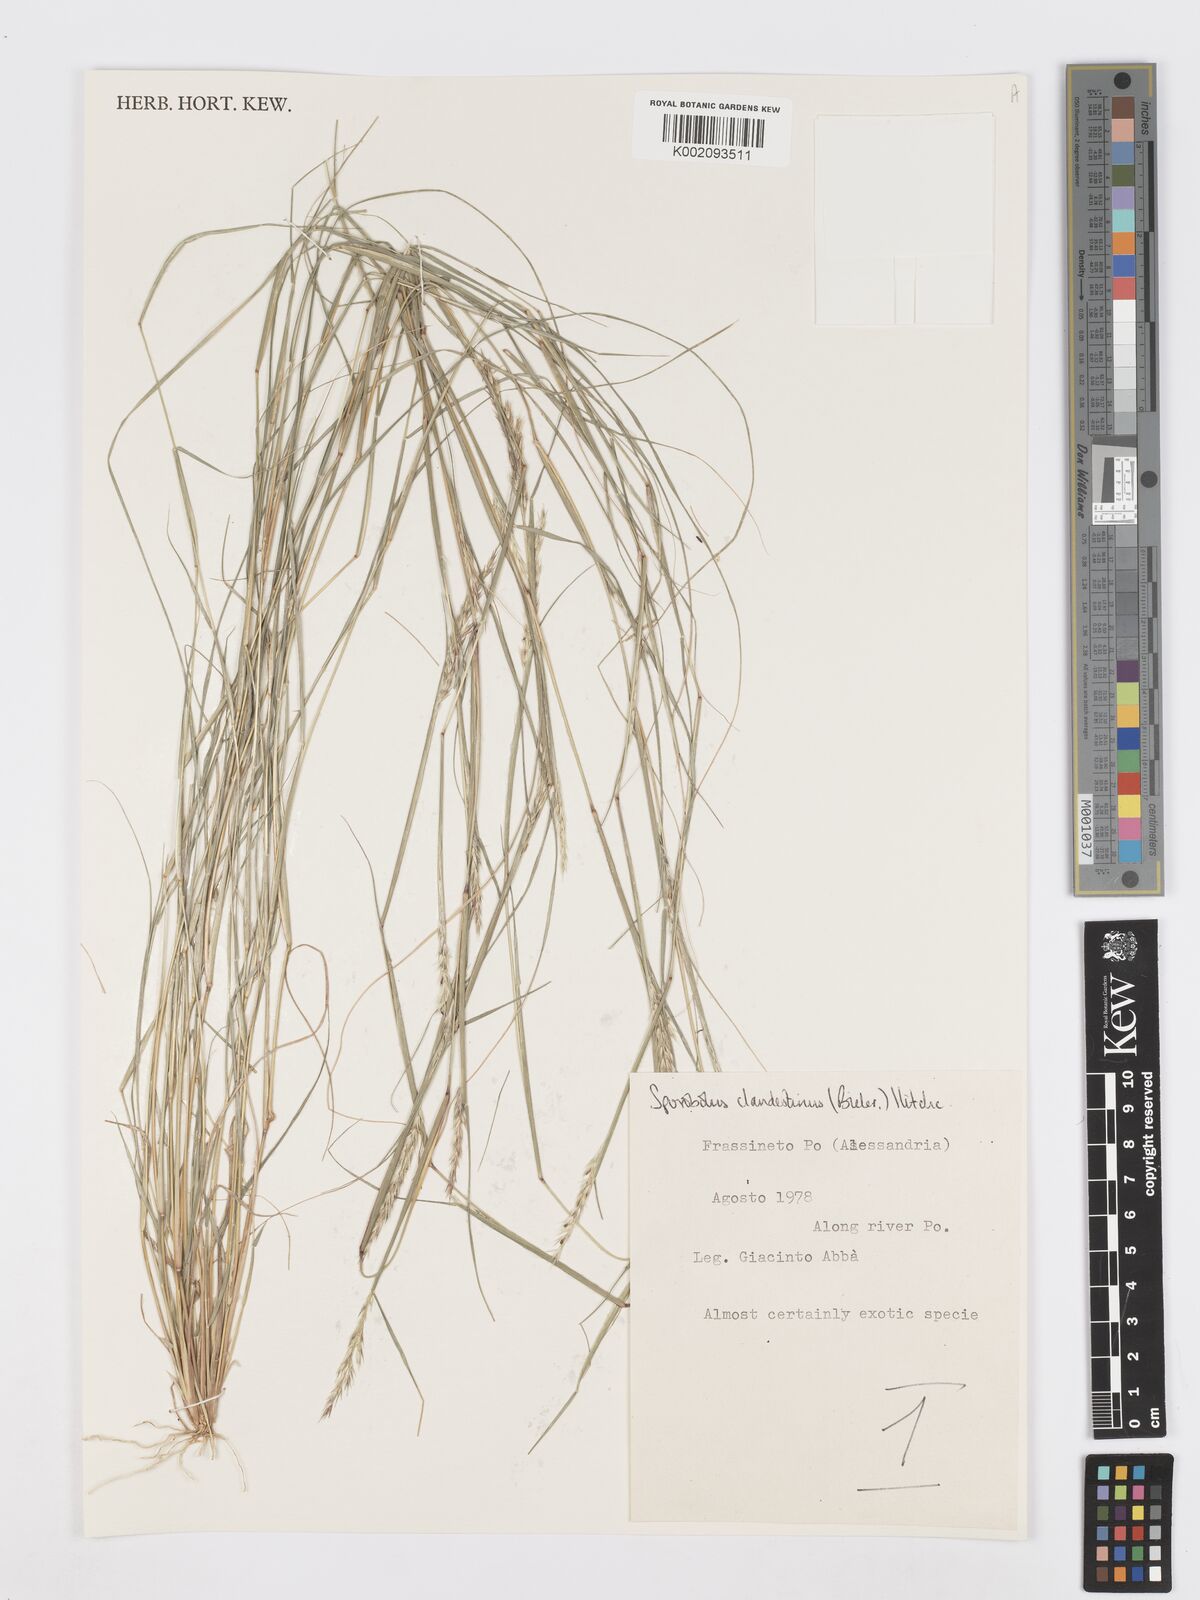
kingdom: Plantae
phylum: Tracheophyta
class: Liliopsida
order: Poales
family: Poaceae
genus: Sporobolus
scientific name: Sporobolus clandestinus
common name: Hidden dropseed
